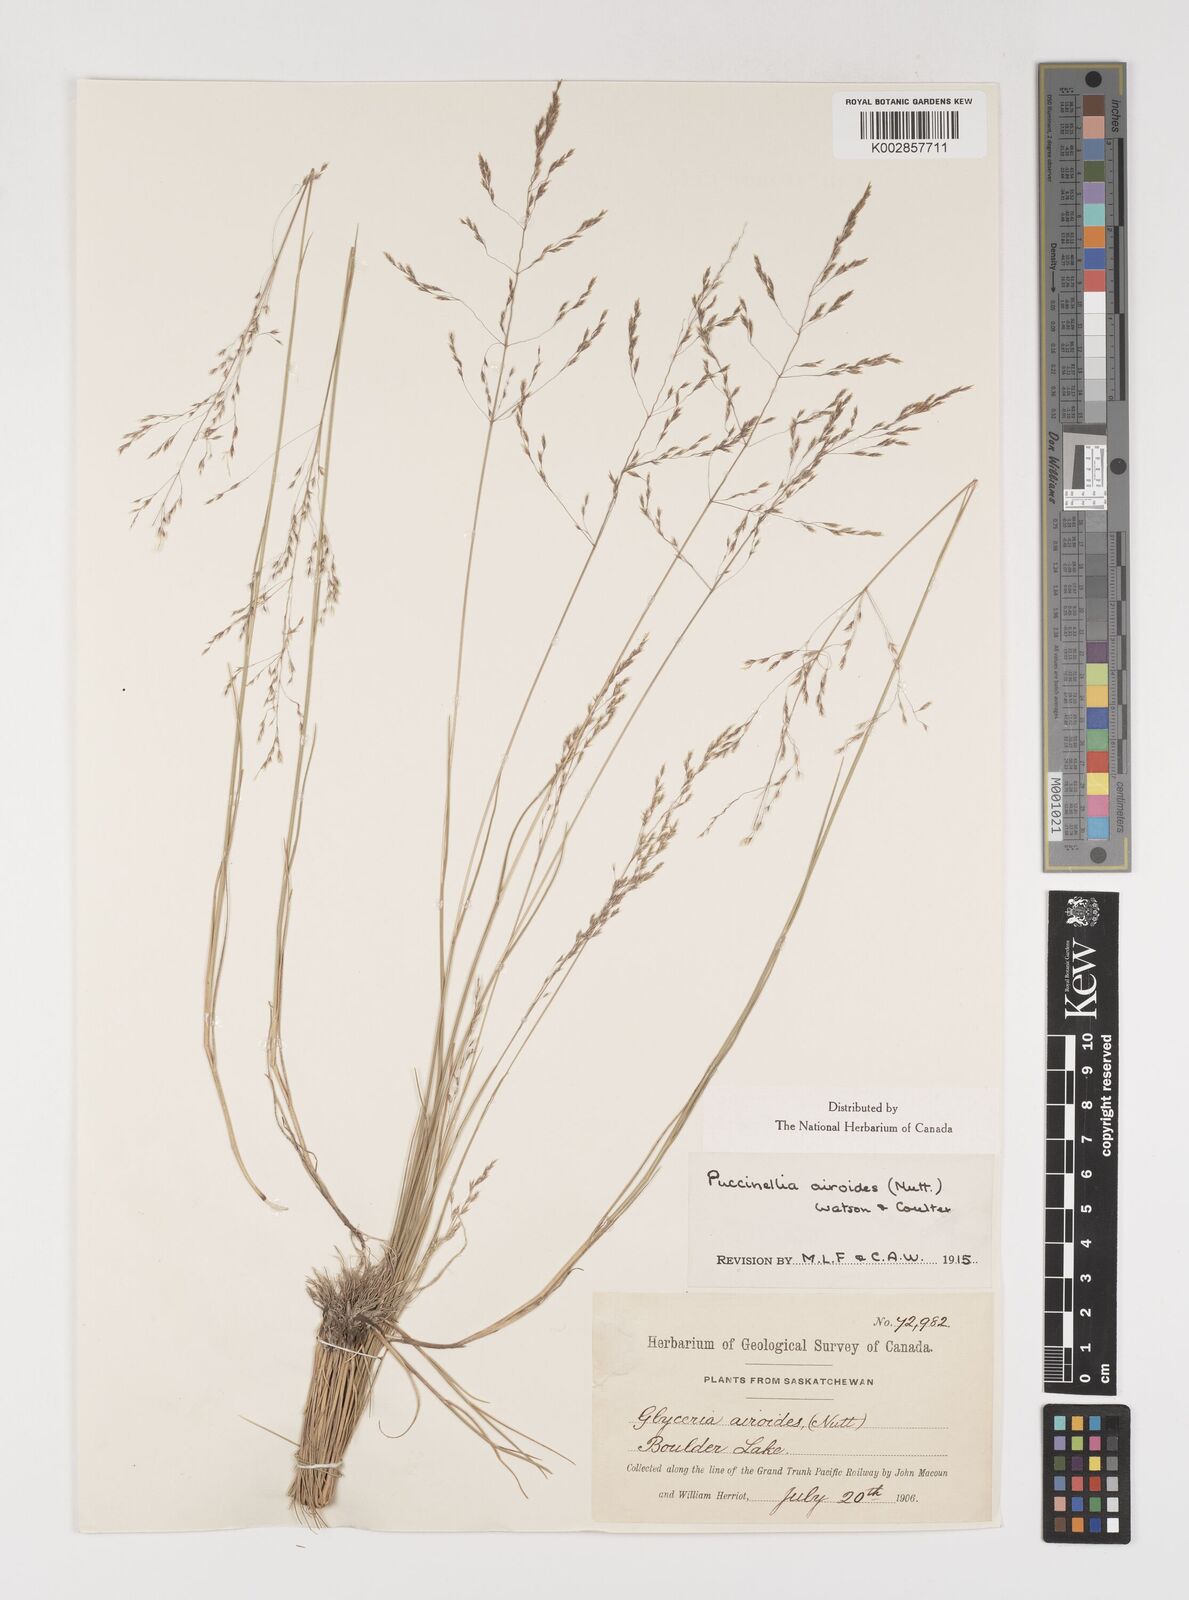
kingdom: Plantae
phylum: Tracheophyta
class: Liliopsida
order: Poales
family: Poaceae
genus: Puccinellia
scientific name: Puccinellia nuttalliana
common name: Nuttall's alkali grass
